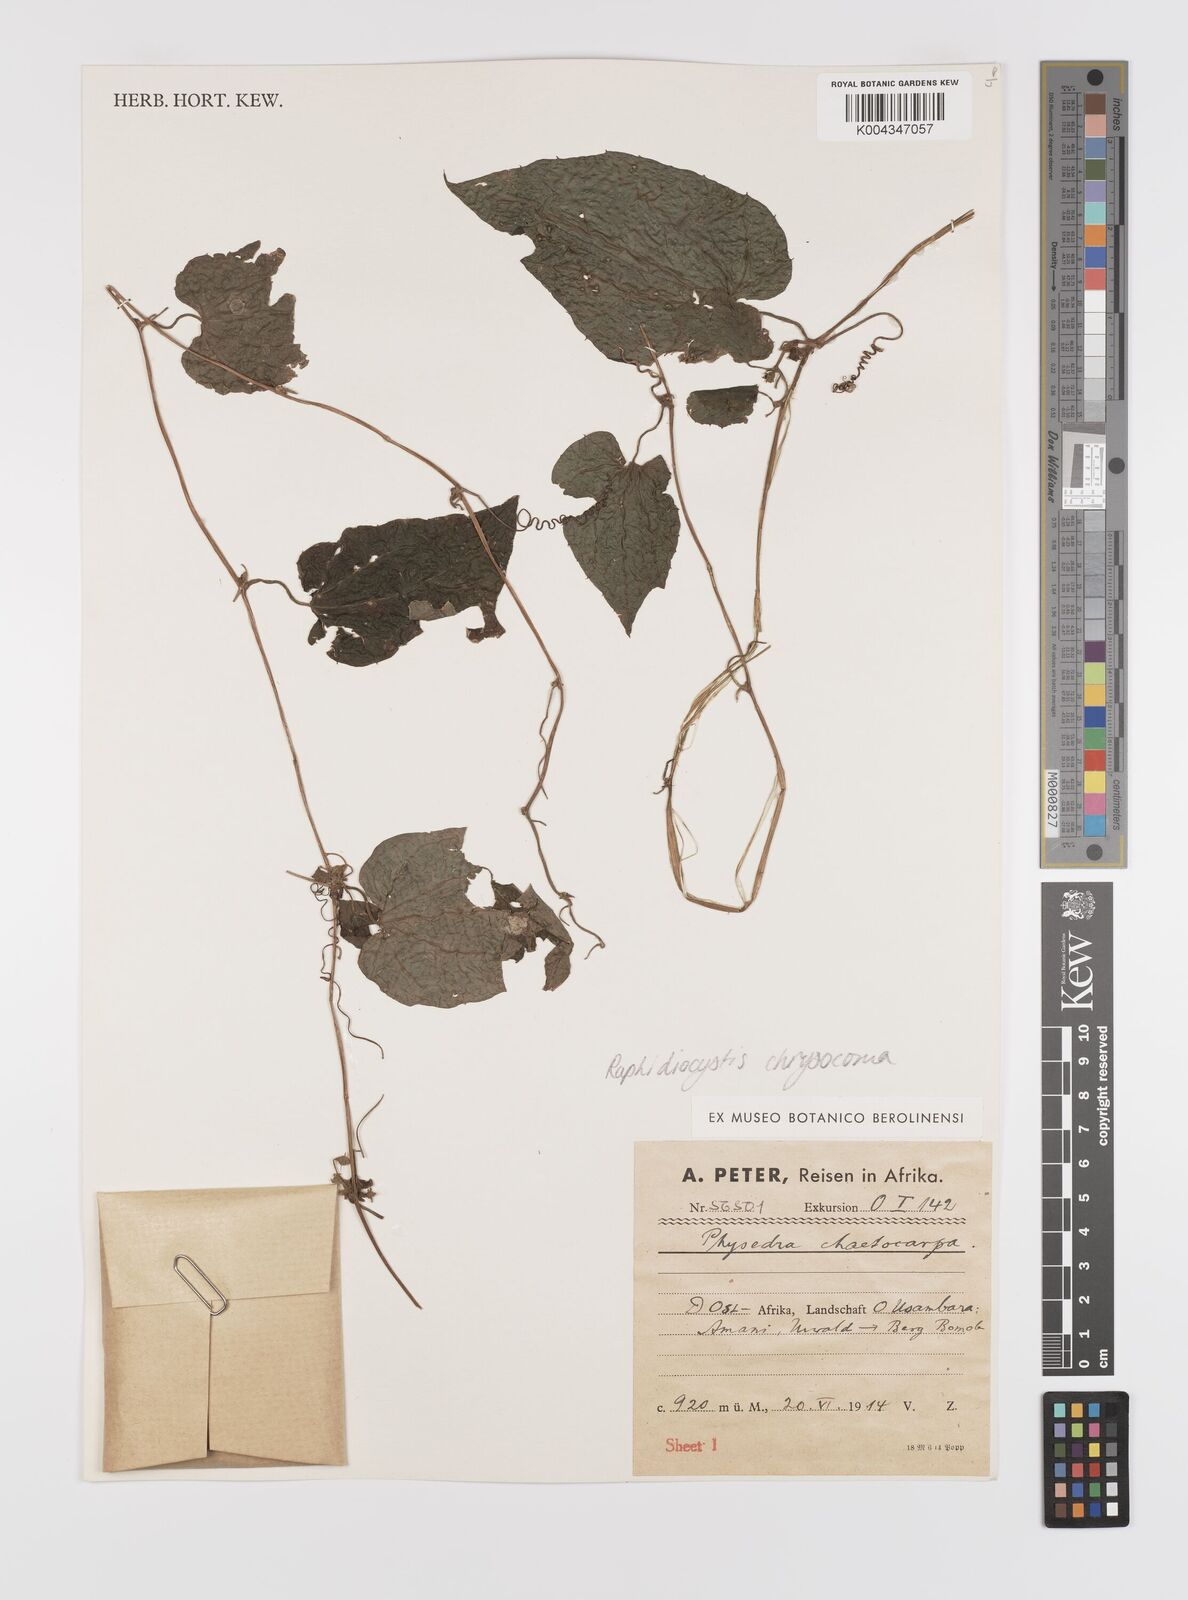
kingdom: Plantae
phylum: Tracheophyta
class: Magnoliopsida
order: Cucurbitales
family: Cucurbitaceae
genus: Raphidiocystis
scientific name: Raphidiocystis chrysocoma
